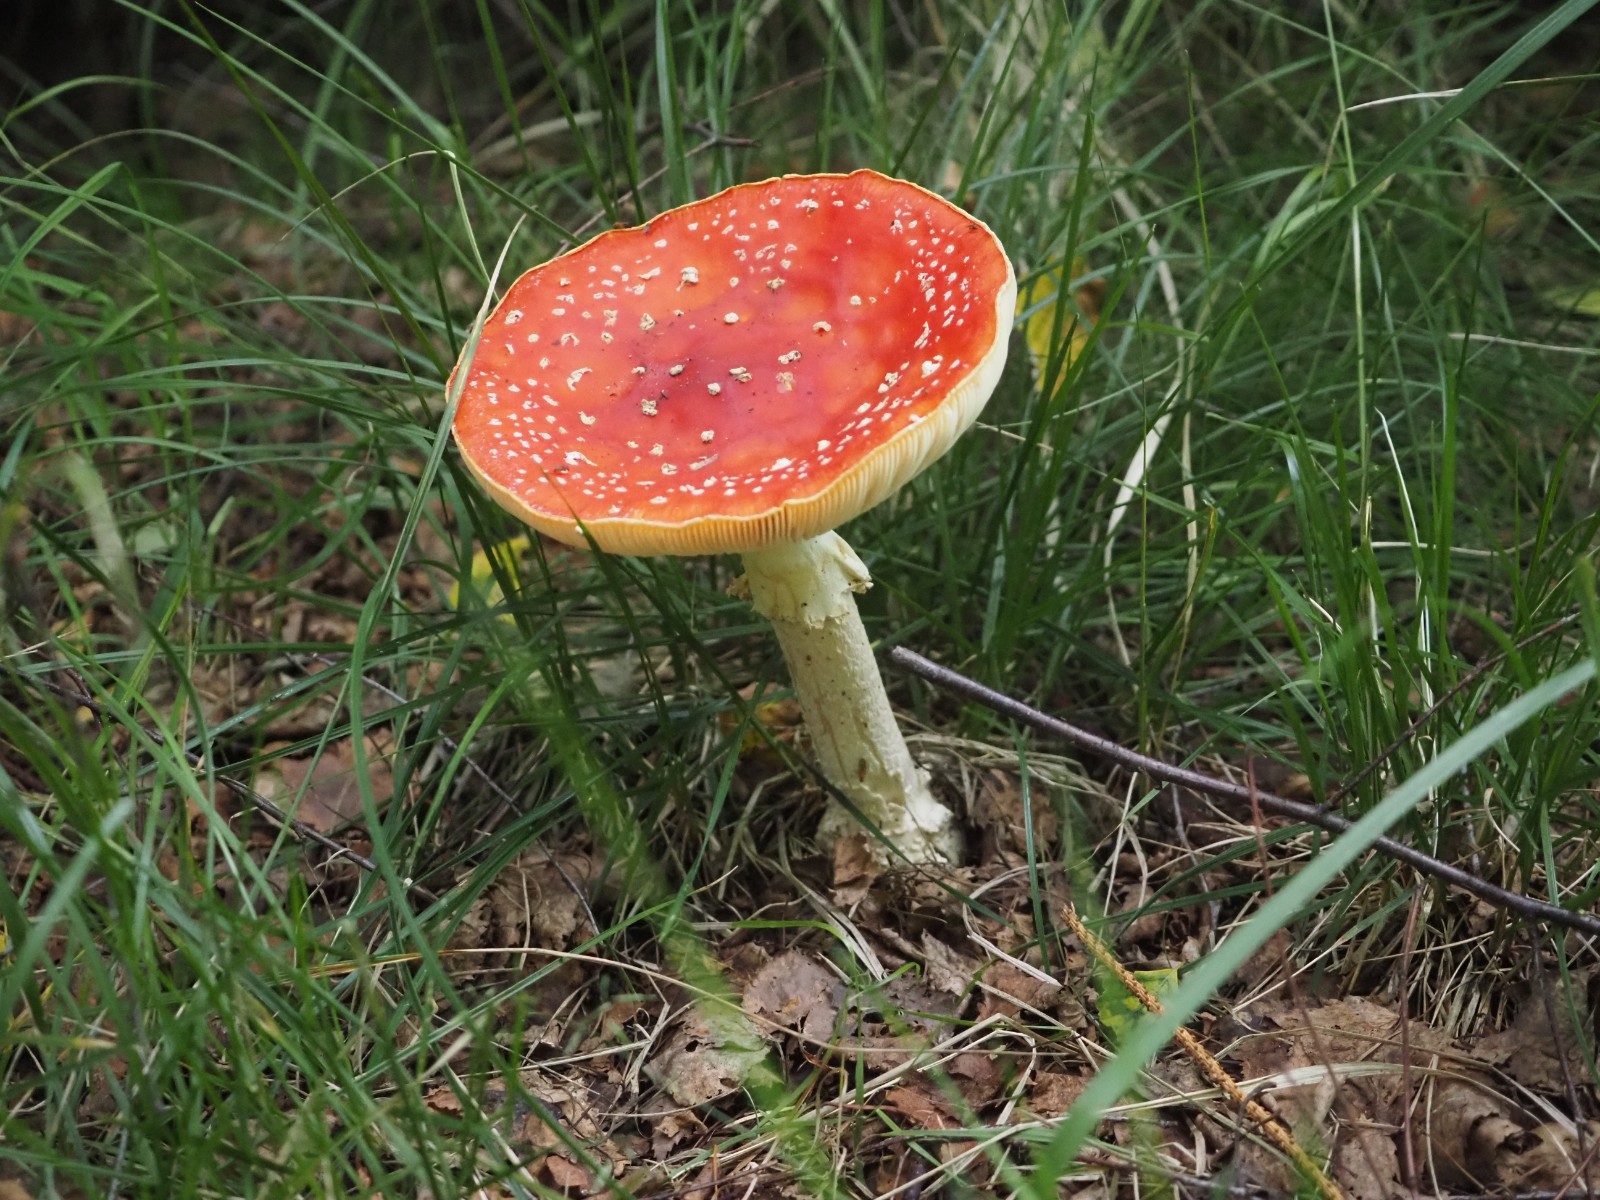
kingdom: Fungi
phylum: Basidiomycota
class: Agaricomycetes
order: Agaricales
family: Amanitaceae
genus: Amanita
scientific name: Amanita muscaria
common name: rød fluesvamp
